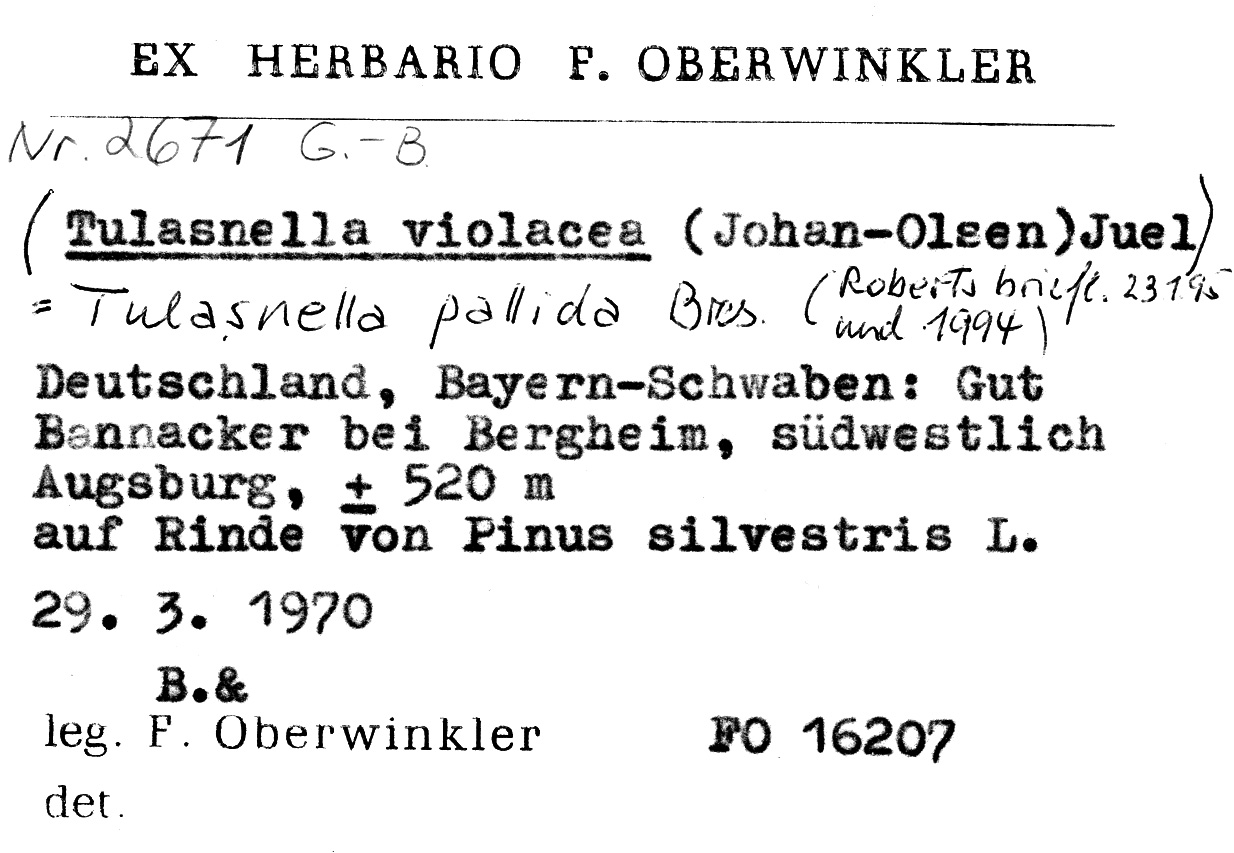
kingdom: Plantae
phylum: Tracheophyta
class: Pinopsida
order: Pinales
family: Pinaceae
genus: Pinus
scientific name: Pinus sylvestris
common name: Scots pine
